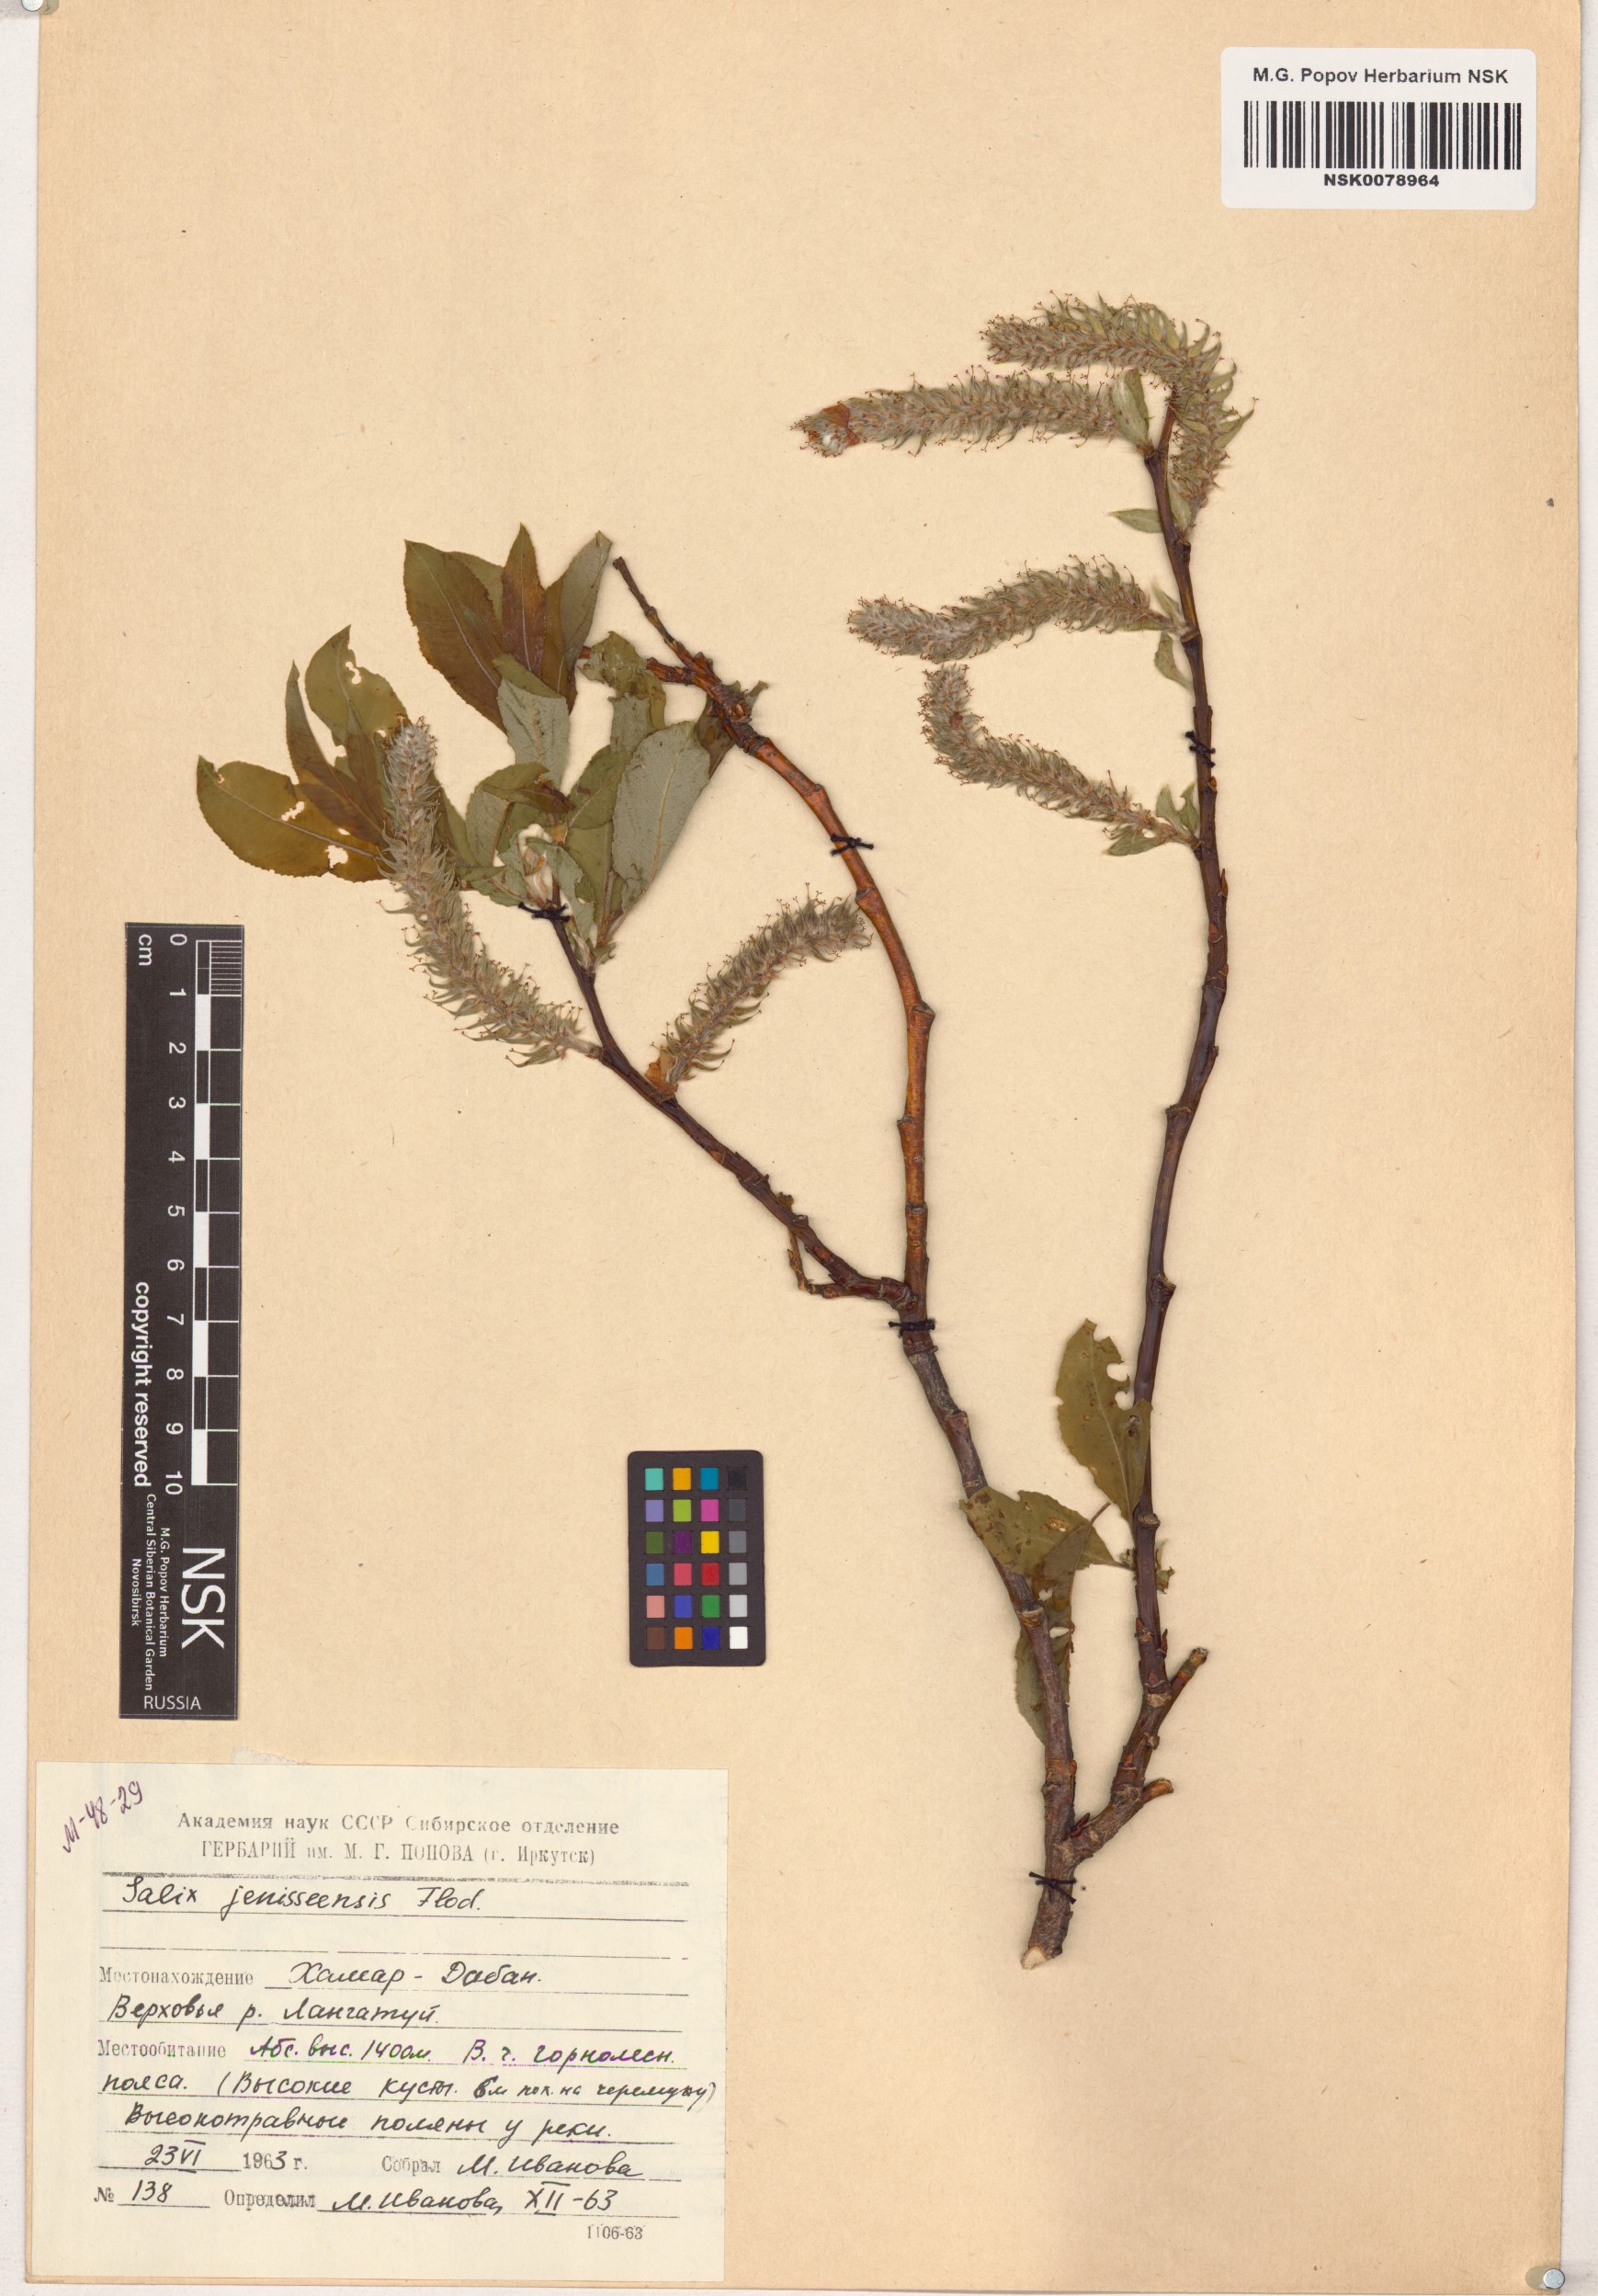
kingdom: Plantae
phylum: Tracheophyta
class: Magnoliopsida
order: Malpighiales
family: Salicaceae
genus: Salix
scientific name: Salix jenisseensis
